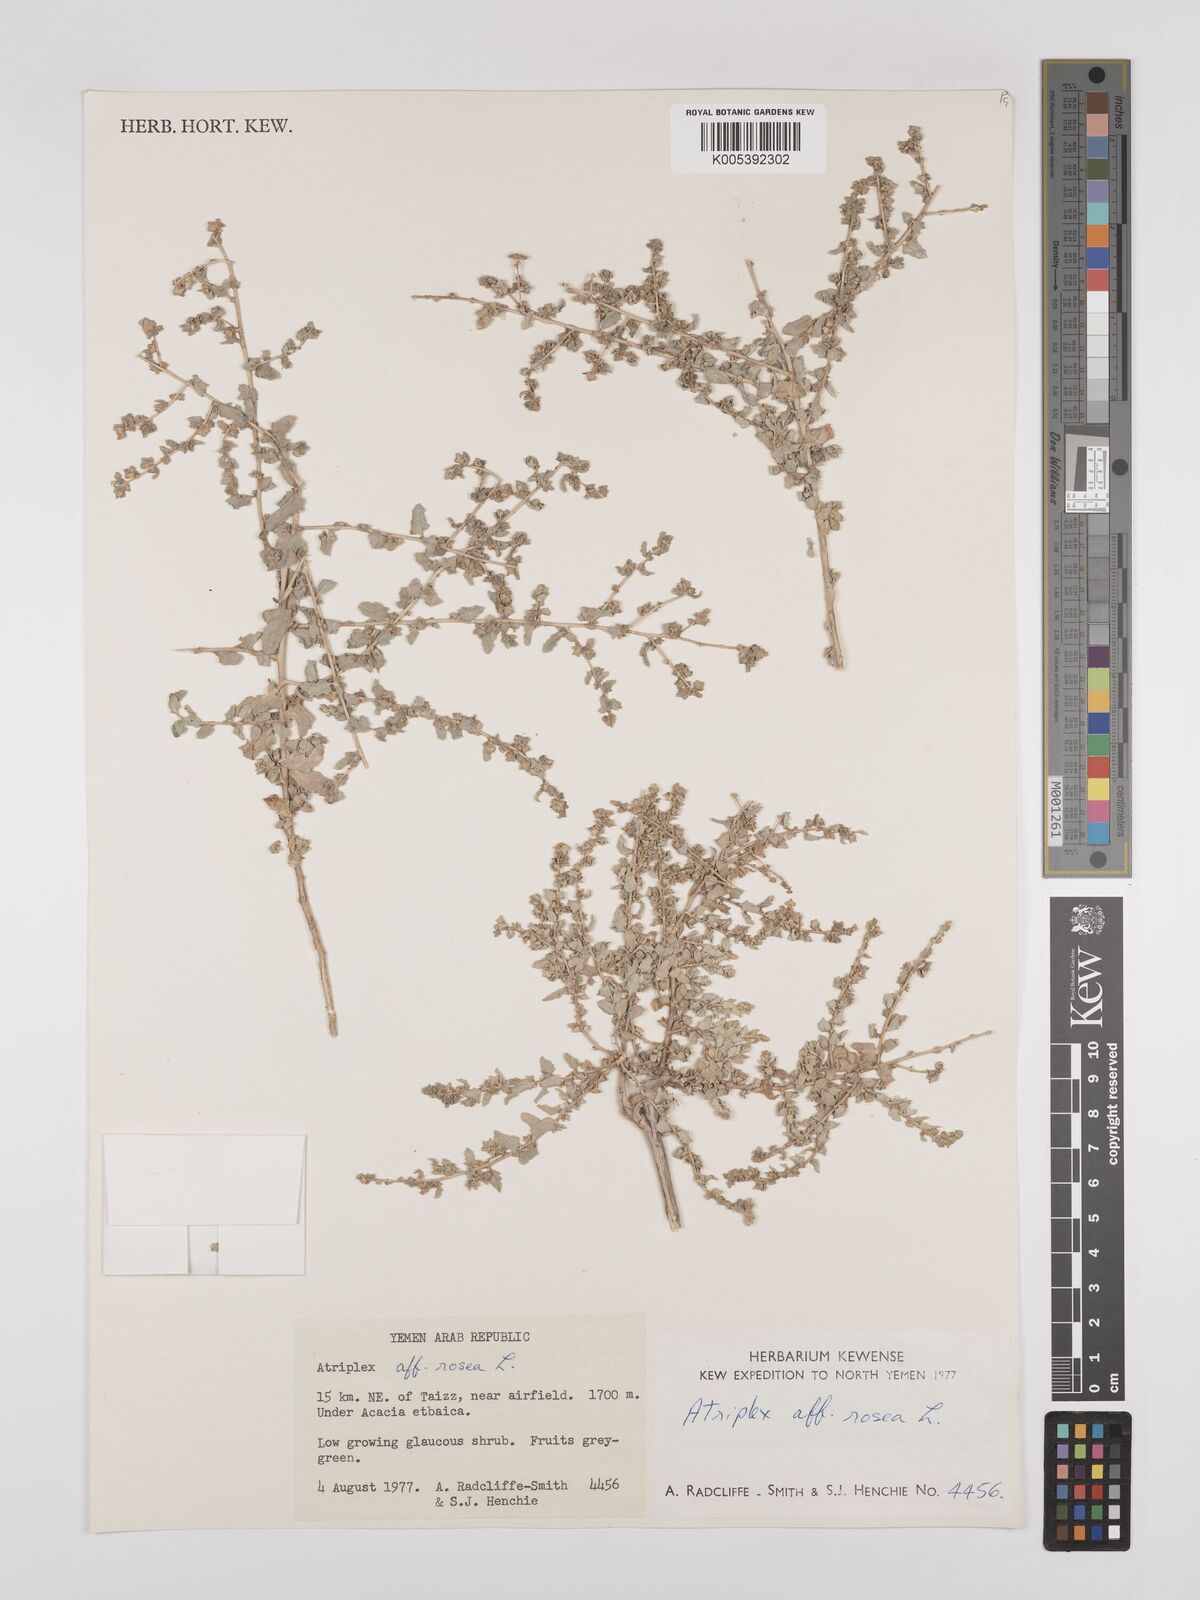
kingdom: Plantae
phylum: Tracheophyta
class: Magnoliopsida
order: Caryophyllales
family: Amaranthaceae
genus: Atriplex
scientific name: Atriplex
